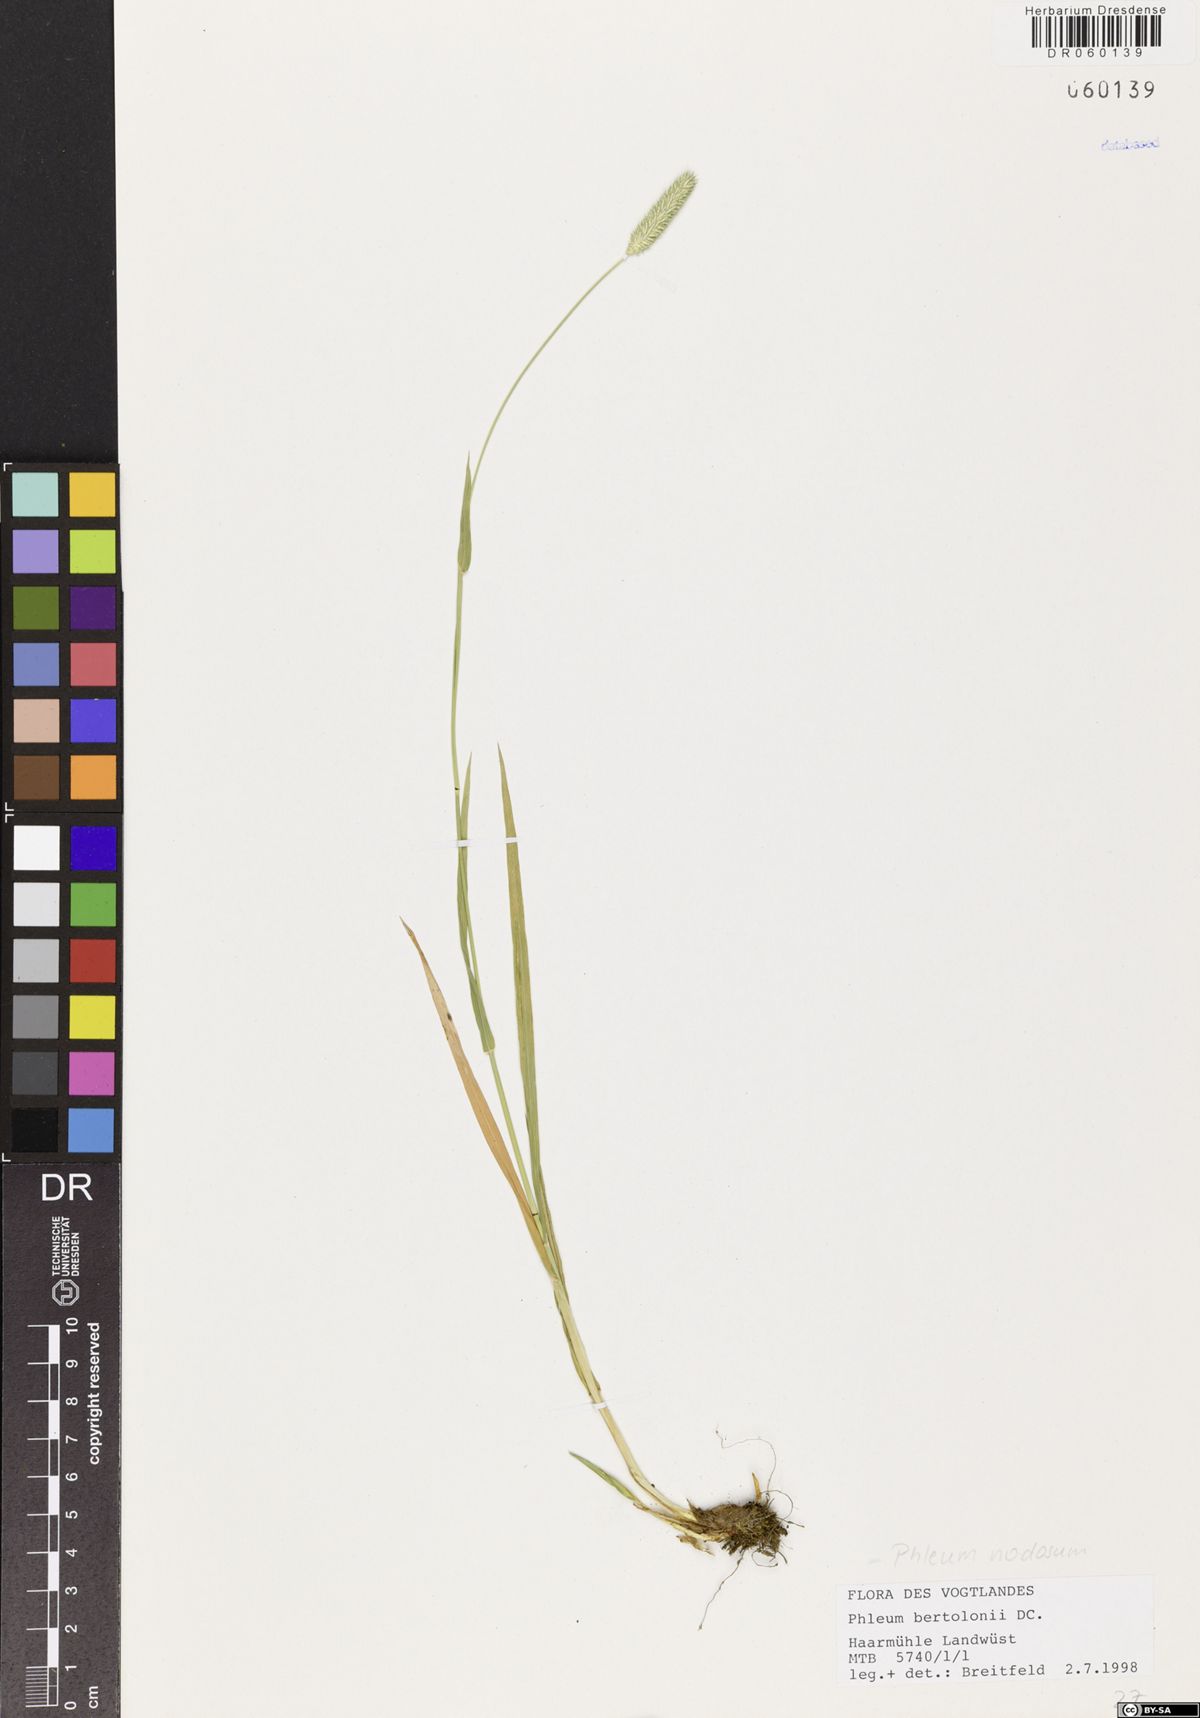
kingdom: Plantae
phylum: Tracheophyta
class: Liliopsida
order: Poales
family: Poaceae
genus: Phleum
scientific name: Phleum pratense
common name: Timothy grass
